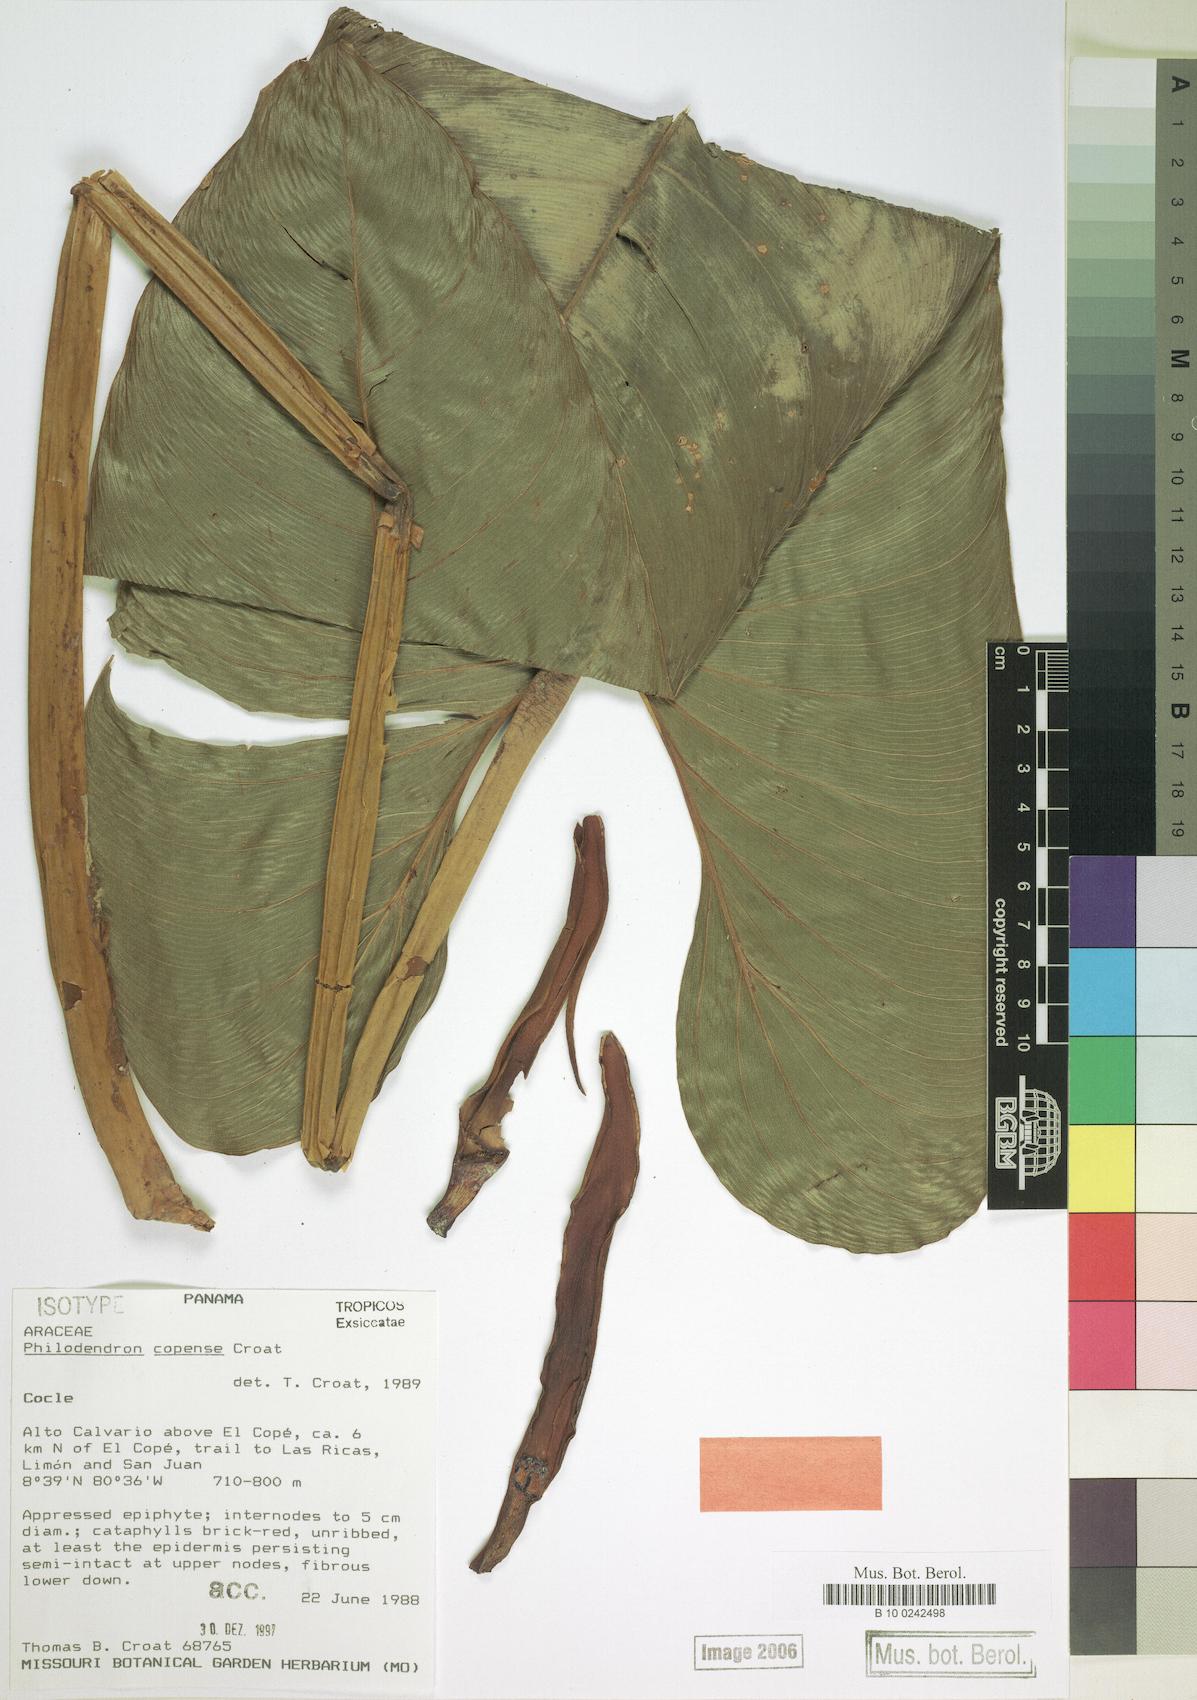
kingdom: Plantae
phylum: Tracheophyta
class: Liliopsida
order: Alismatales
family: Araceae
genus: Philodendron
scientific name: Philodendron copense
